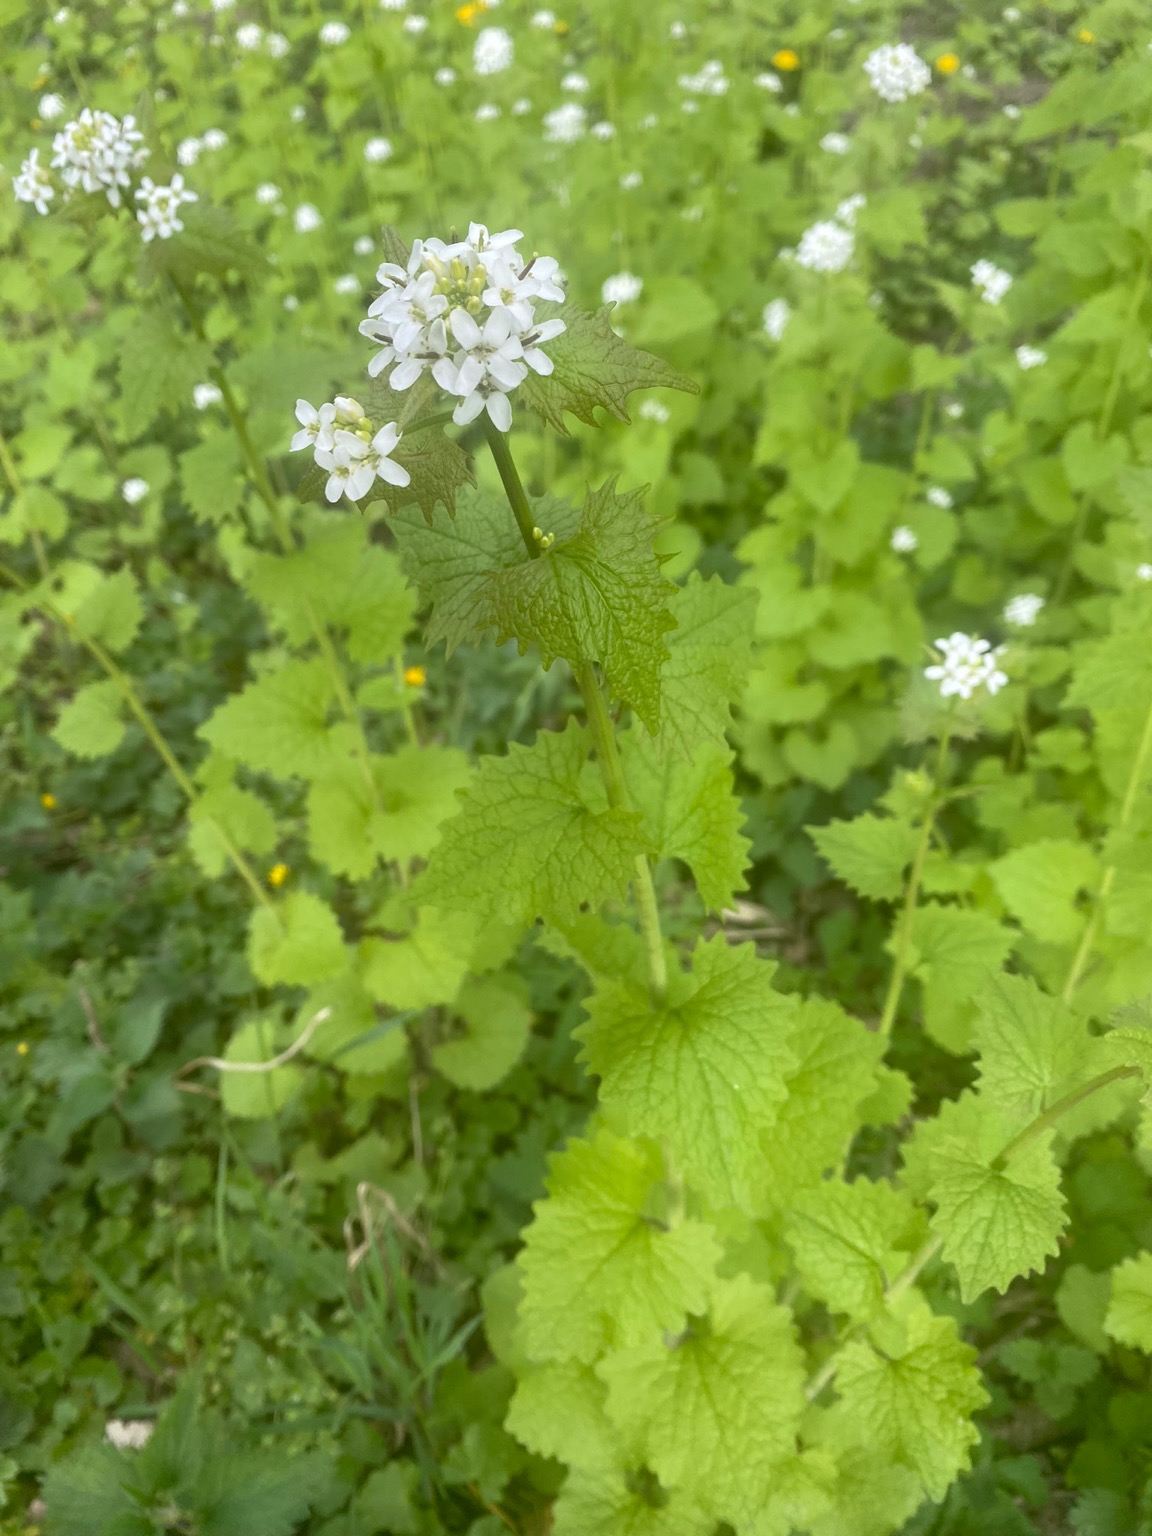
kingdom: Plantae
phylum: Tracheophyta
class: Magnoliopsida
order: Brassicales
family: Brassicaceae
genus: Alliaria
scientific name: Alliaria petiolata
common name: Løgkarse
